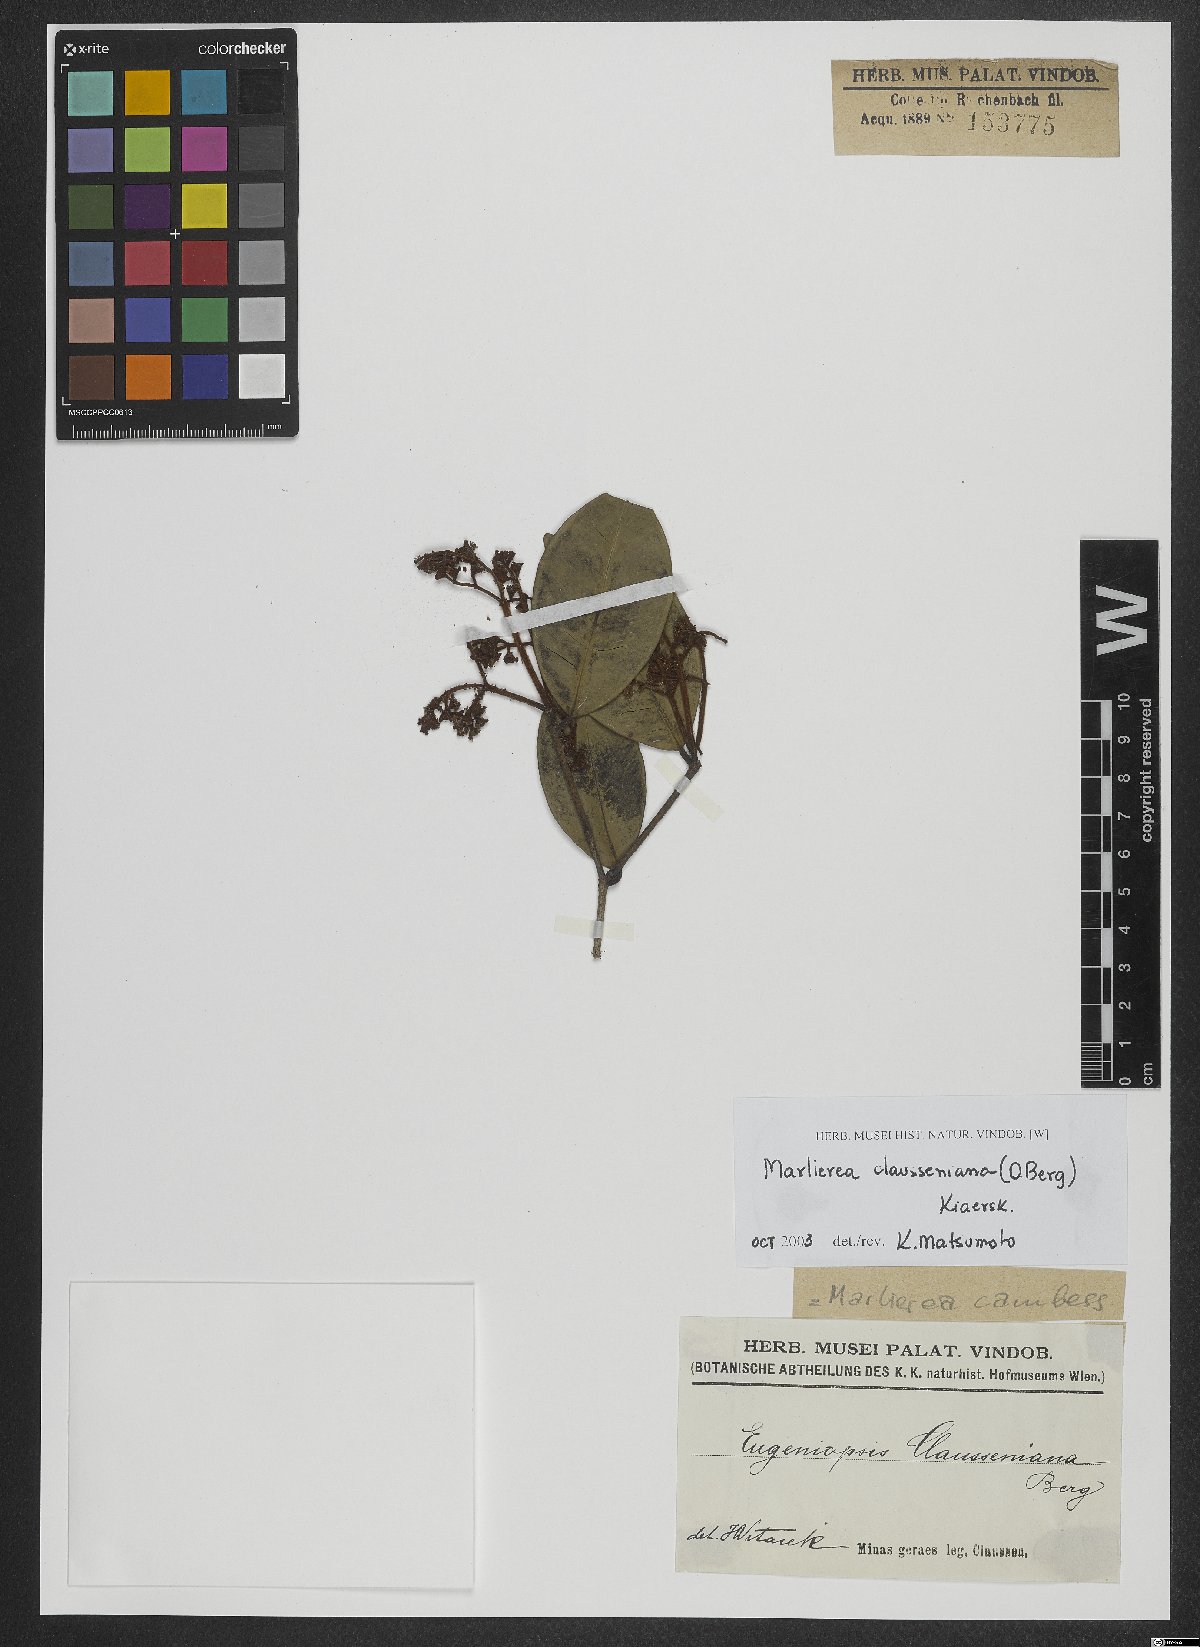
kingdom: Plantae
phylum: Tracheophyta
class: Magnoliopsida
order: Myrtales
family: Myrtaceae
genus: Marlierea
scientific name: Marlierea clausseniana
